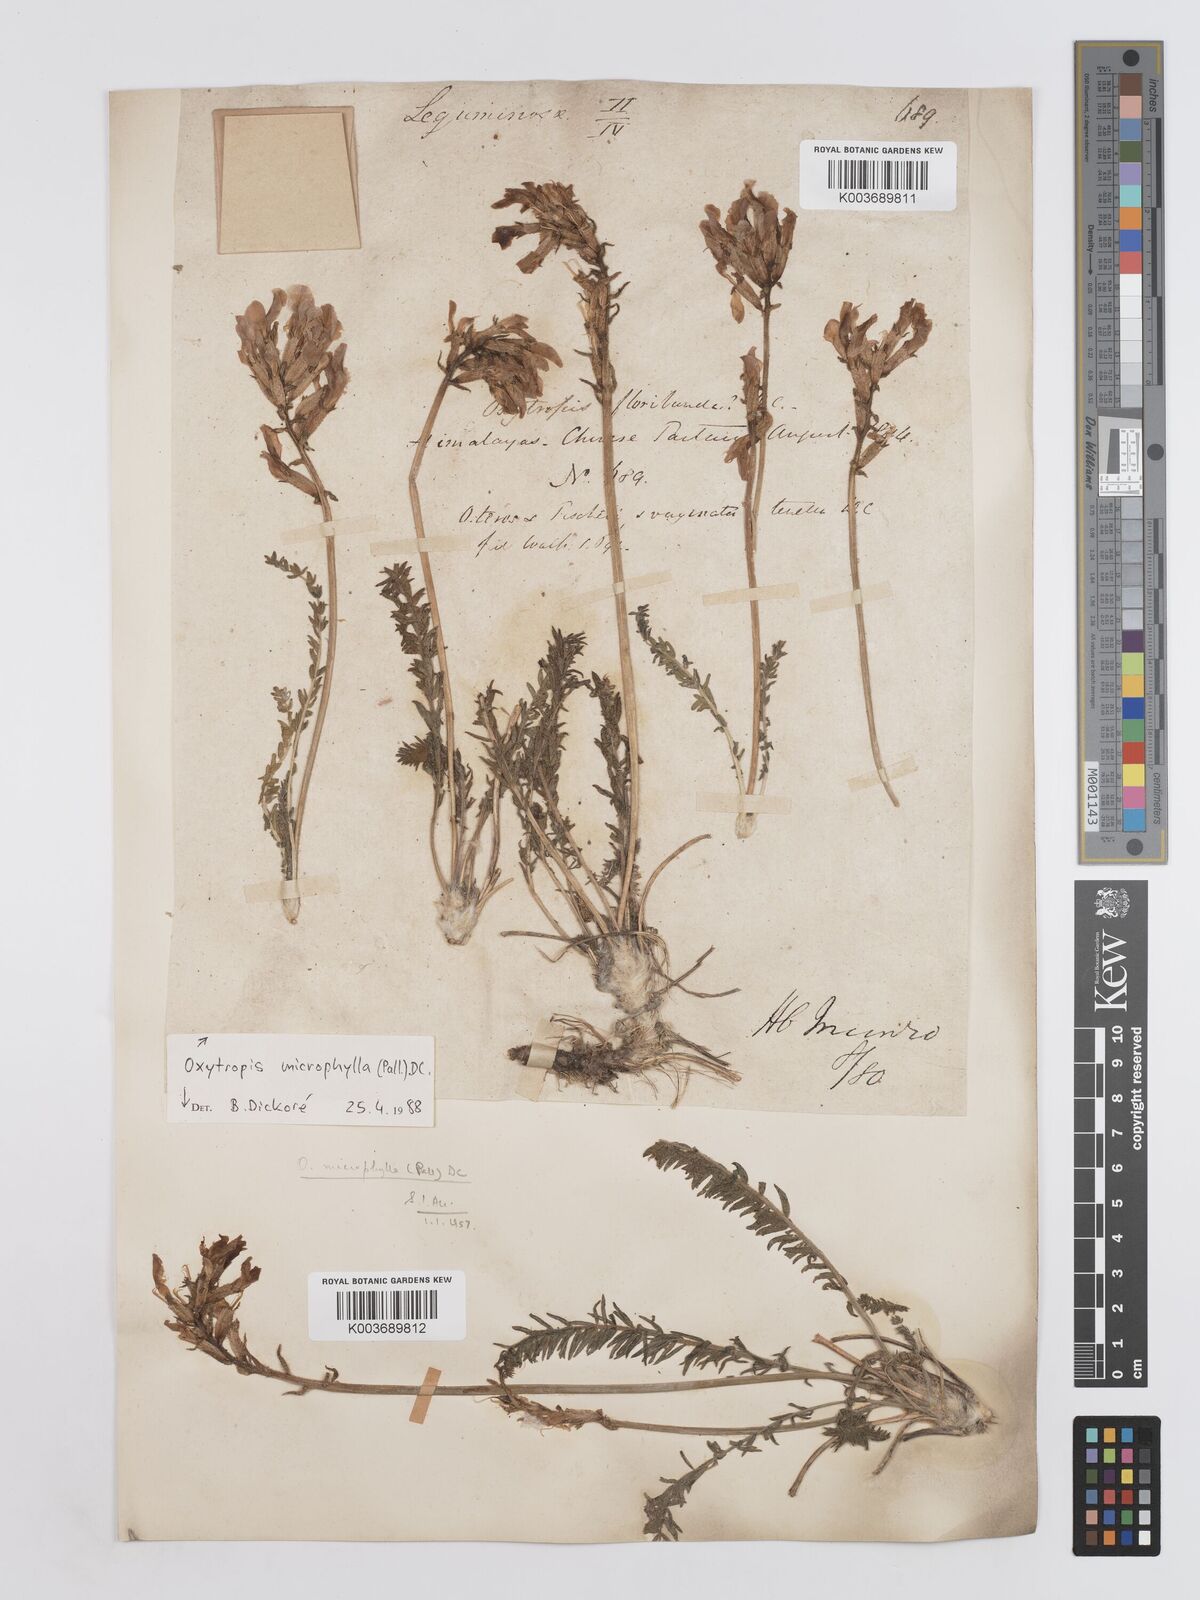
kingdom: Plantae
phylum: Tracheophyta
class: Magnoliopsida
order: Fabales
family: Fabaceae
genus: Oxytropis
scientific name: Oxytropis microphylla
